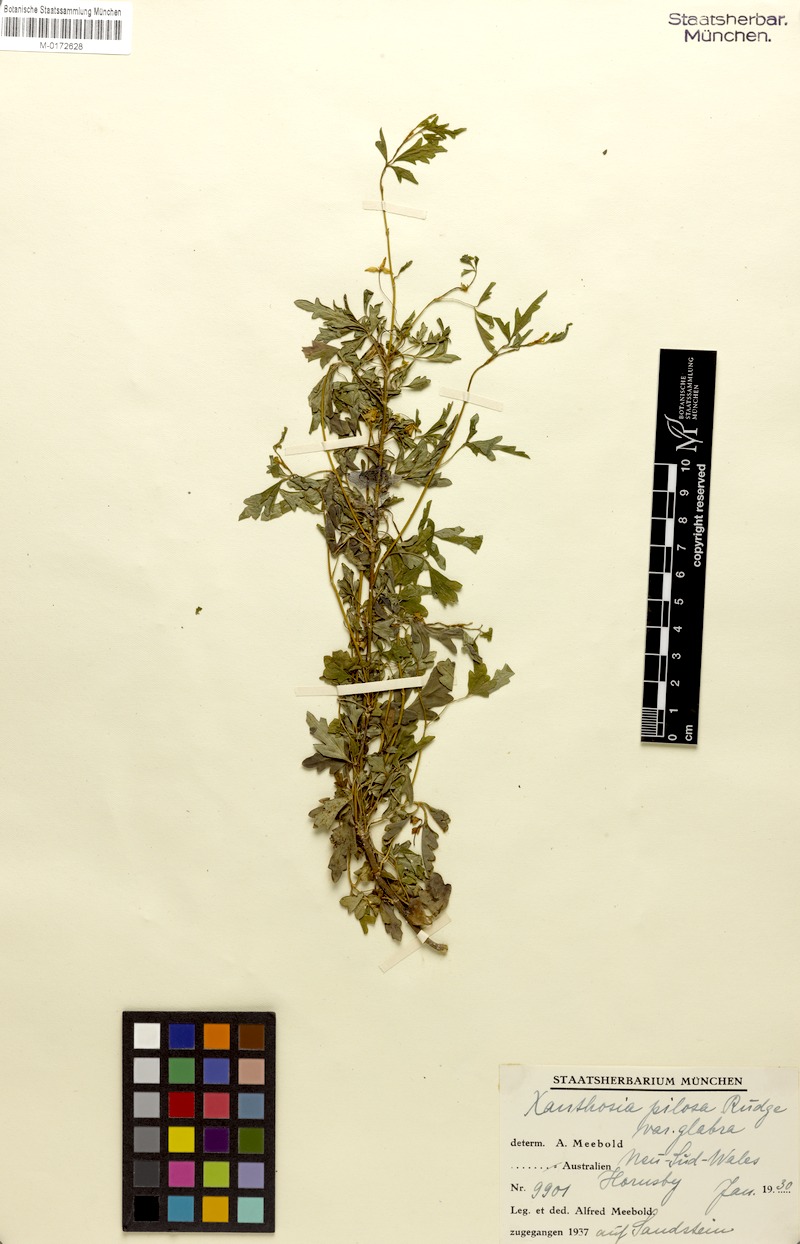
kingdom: Plantae
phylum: Tracheophyta
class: Magnoliopsida
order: Apiales
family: Apiaceae
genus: Xanthosia
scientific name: Xanthosia pilosa
